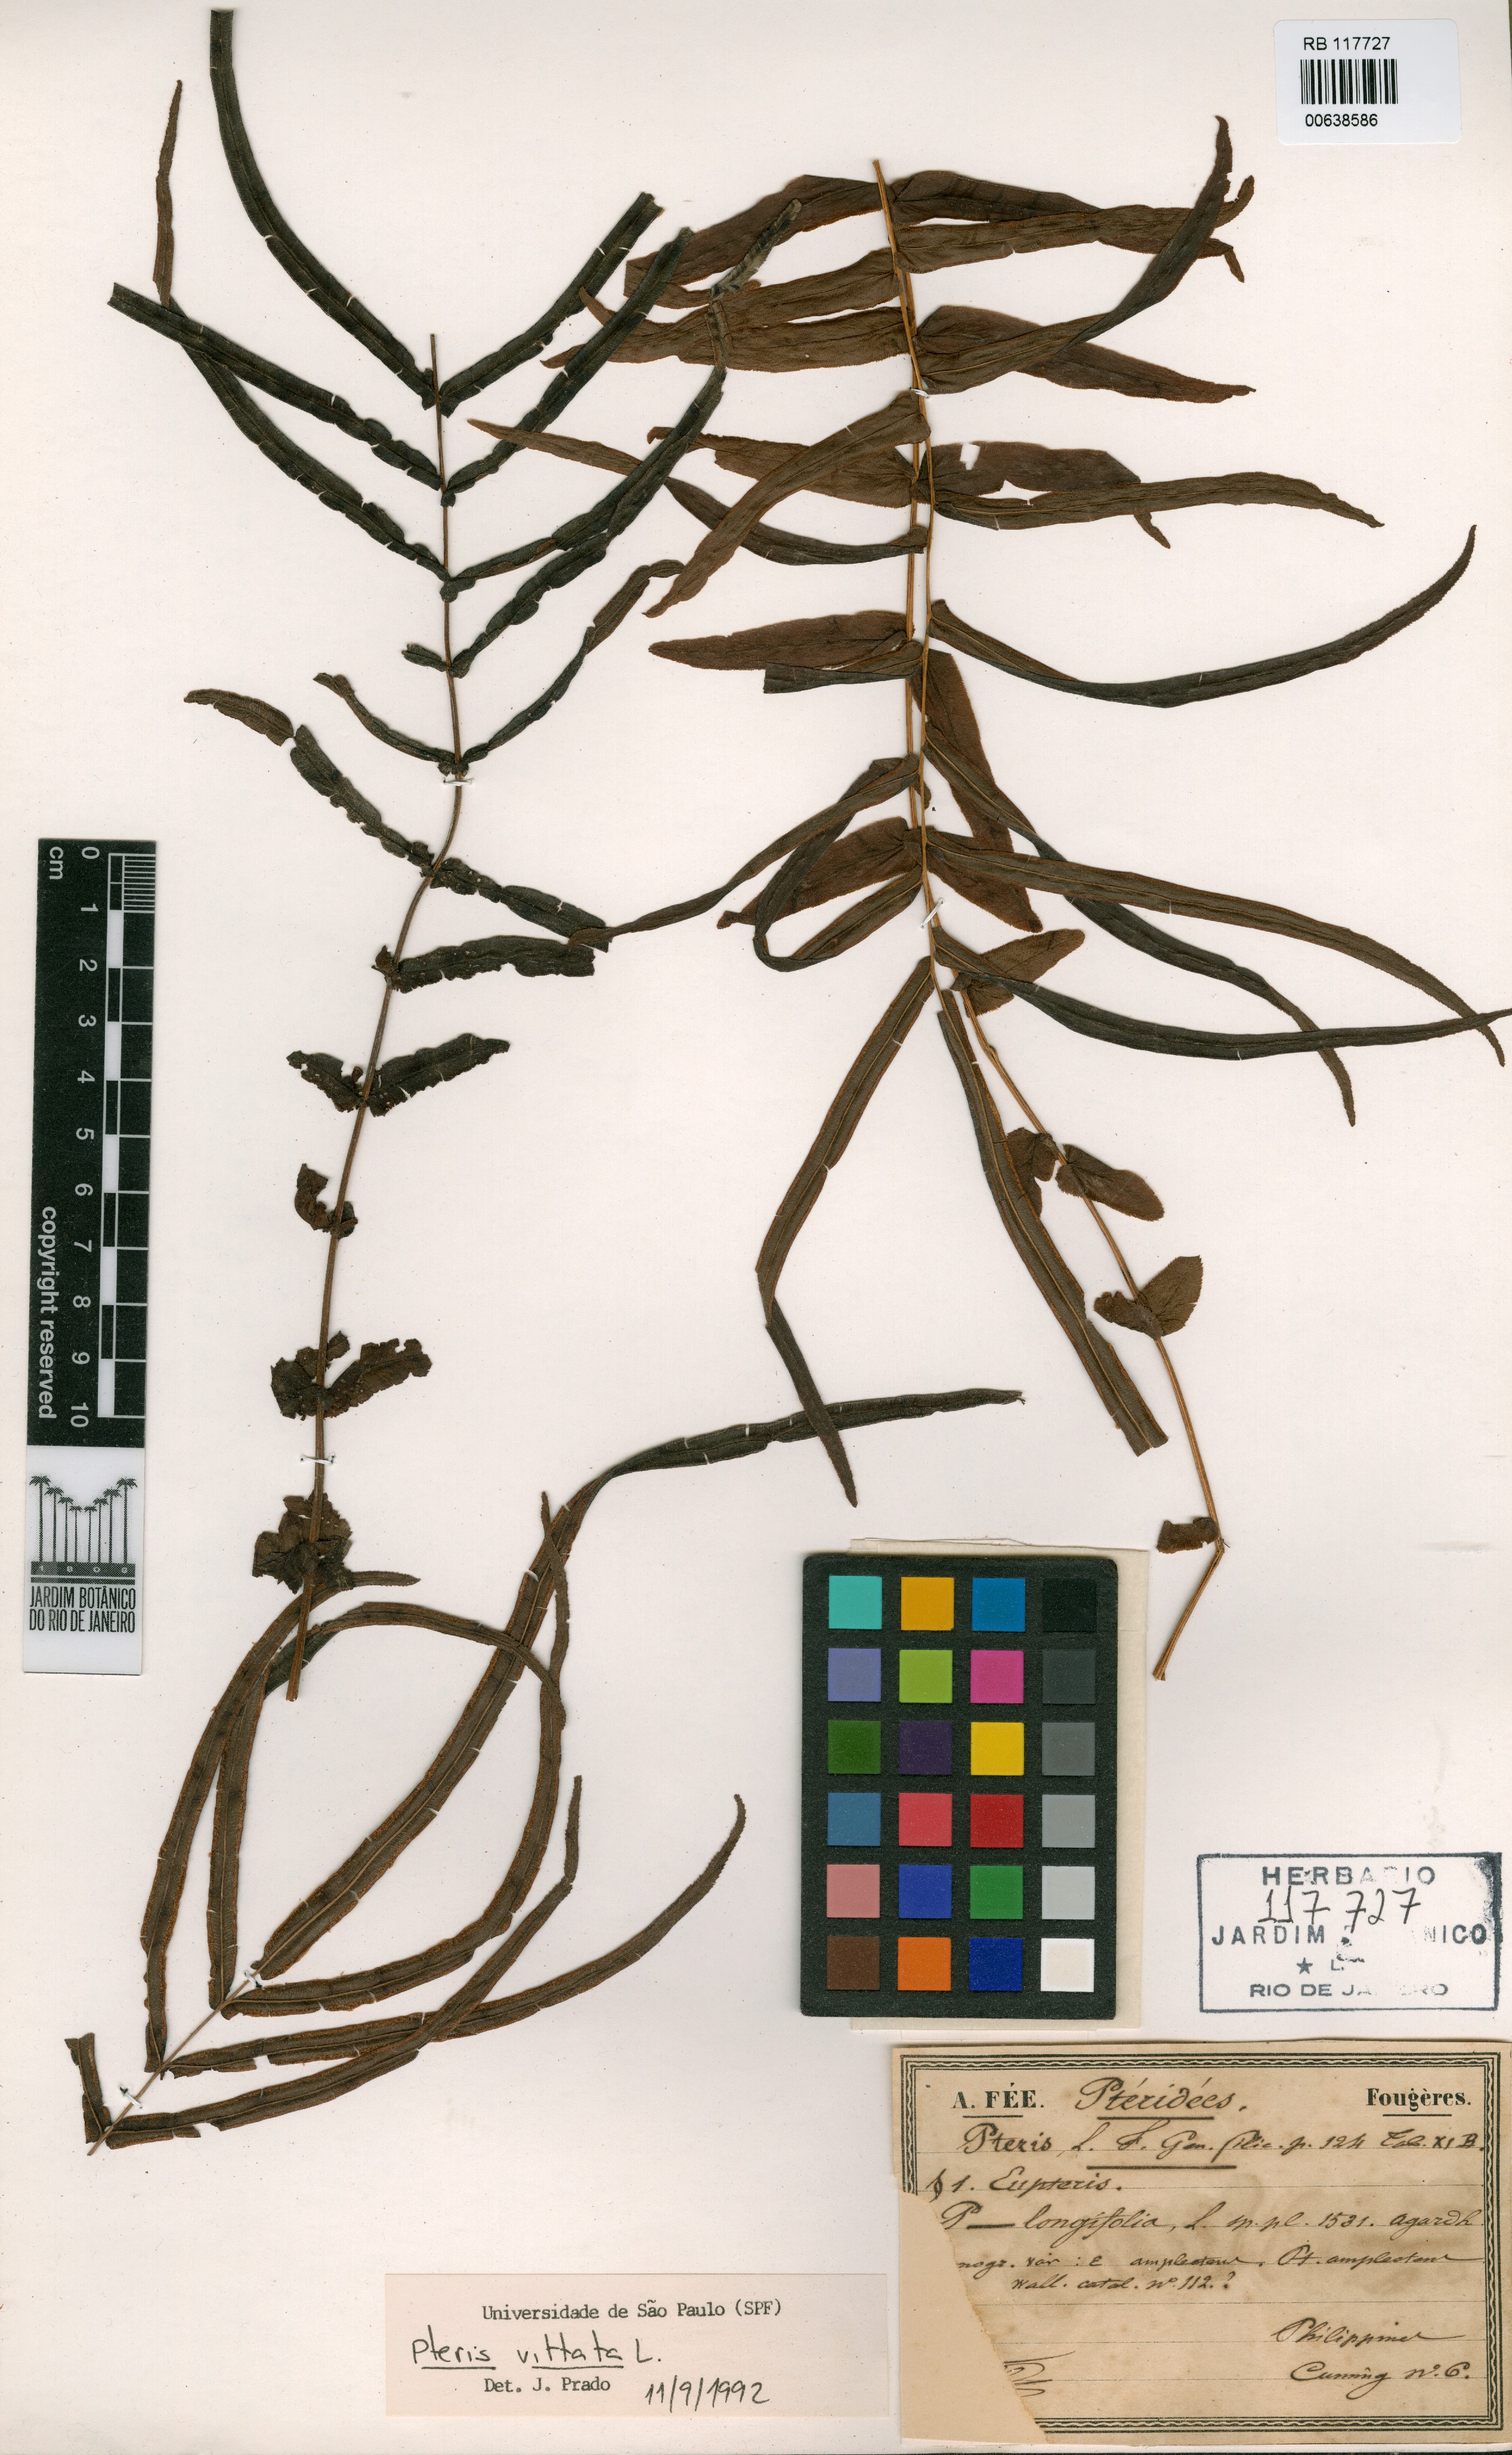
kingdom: Plantae
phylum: Tracheophyta
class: Polypodiopsida
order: Polypodiales
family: Pteridaceae
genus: Pteris
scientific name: Pteris vittata
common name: Ladder brake
